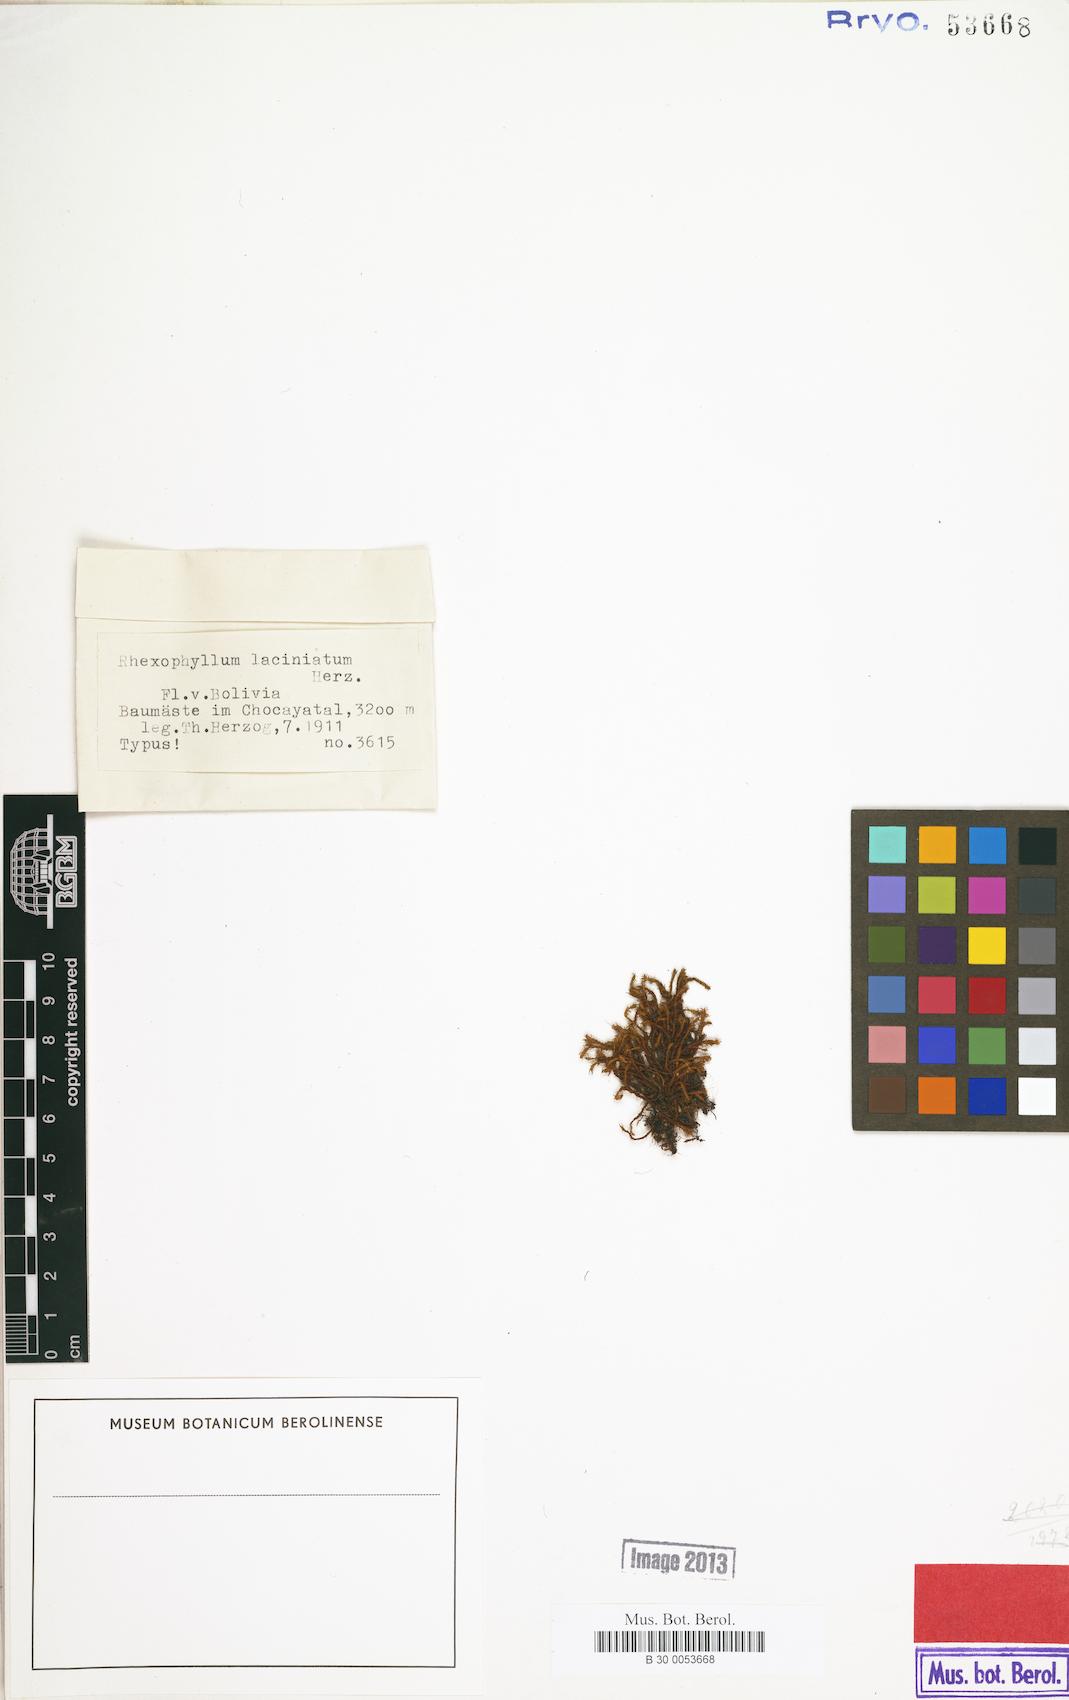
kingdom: Plantae
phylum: Bryophyta
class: Bryopsida
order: Pottiales
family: Pottiaceae
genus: Rhexophyllum
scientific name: Rhexophyllum subnigrum
